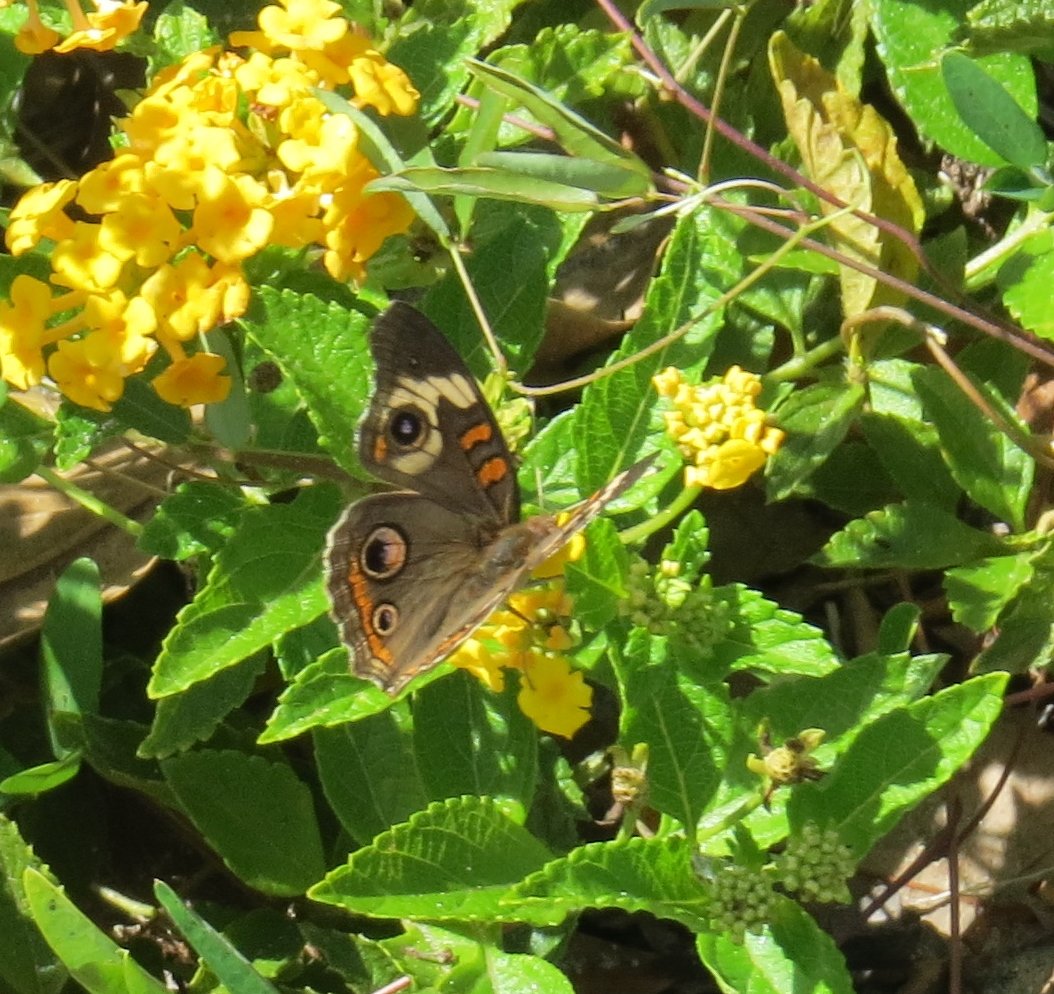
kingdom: Animalia
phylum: Arthropoda
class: Insecta
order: Lepidoptera
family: Nymphalidae
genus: Junonia
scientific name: Junonia coenia
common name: Common Buckeye
